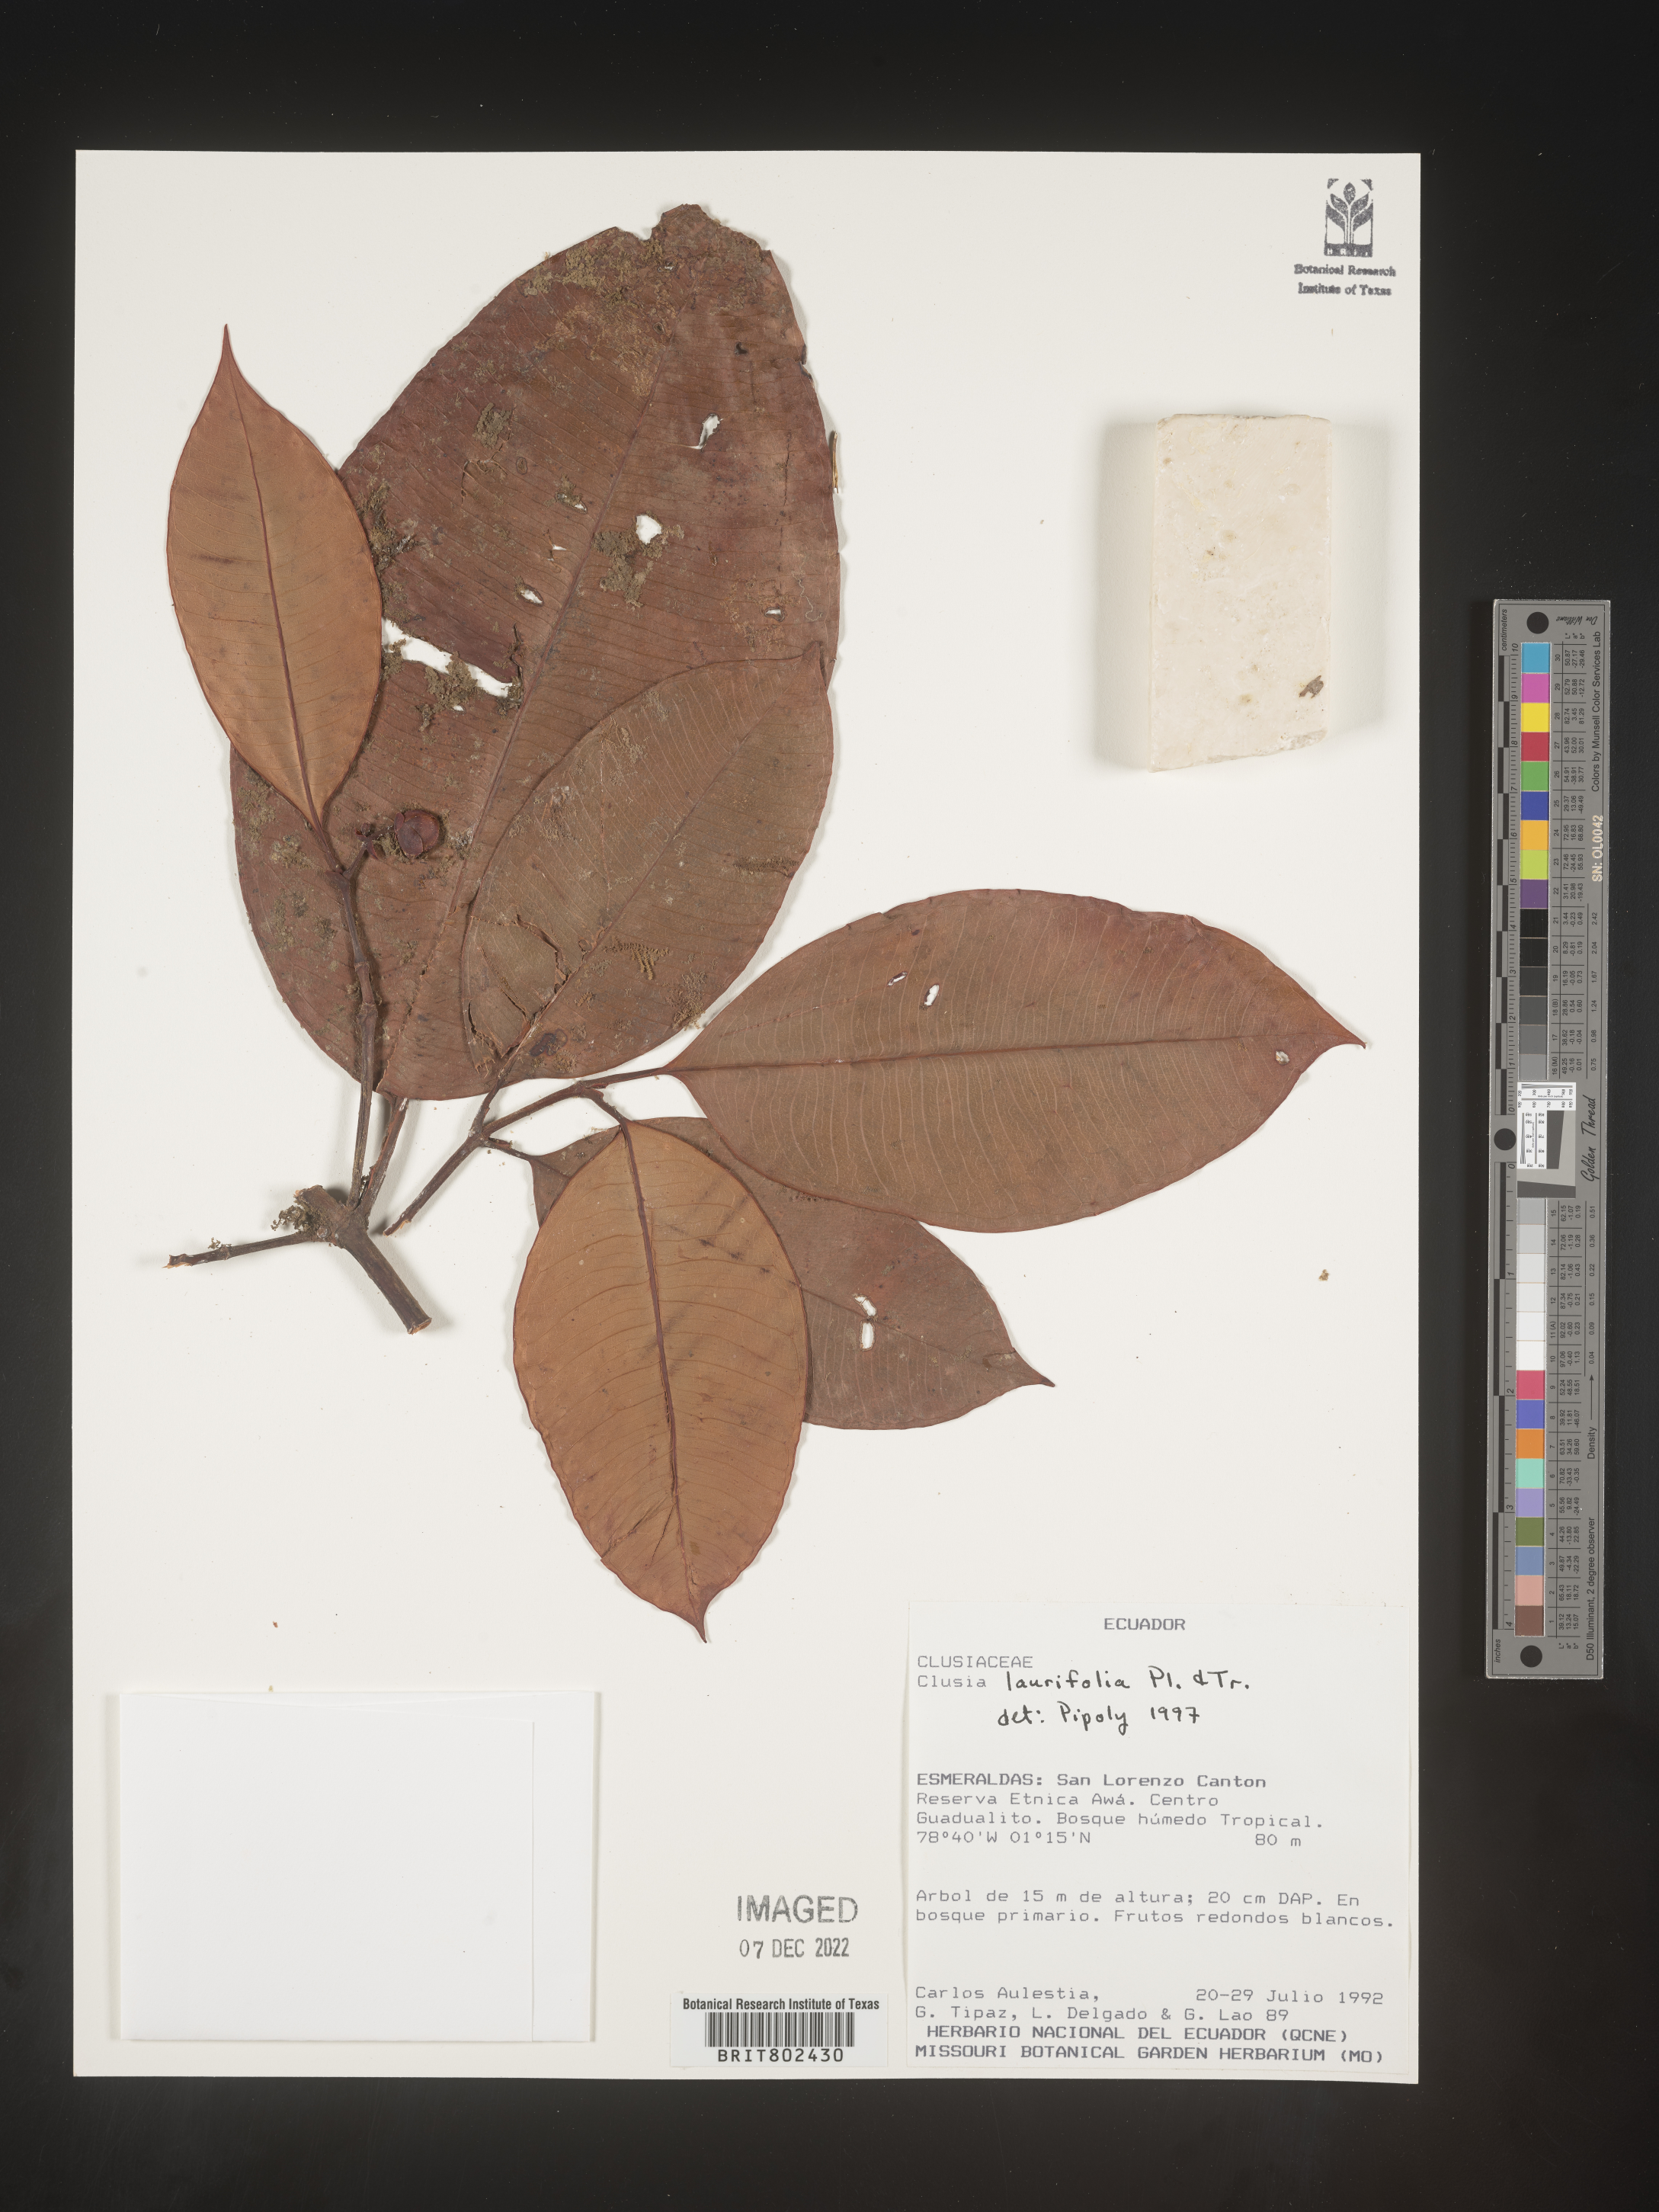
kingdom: Plantae
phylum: Tracheophyta
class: Magnoliopsida
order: Malpighiales
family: Clusiaceae
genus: Clusia
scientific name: Clusia laurifolia
